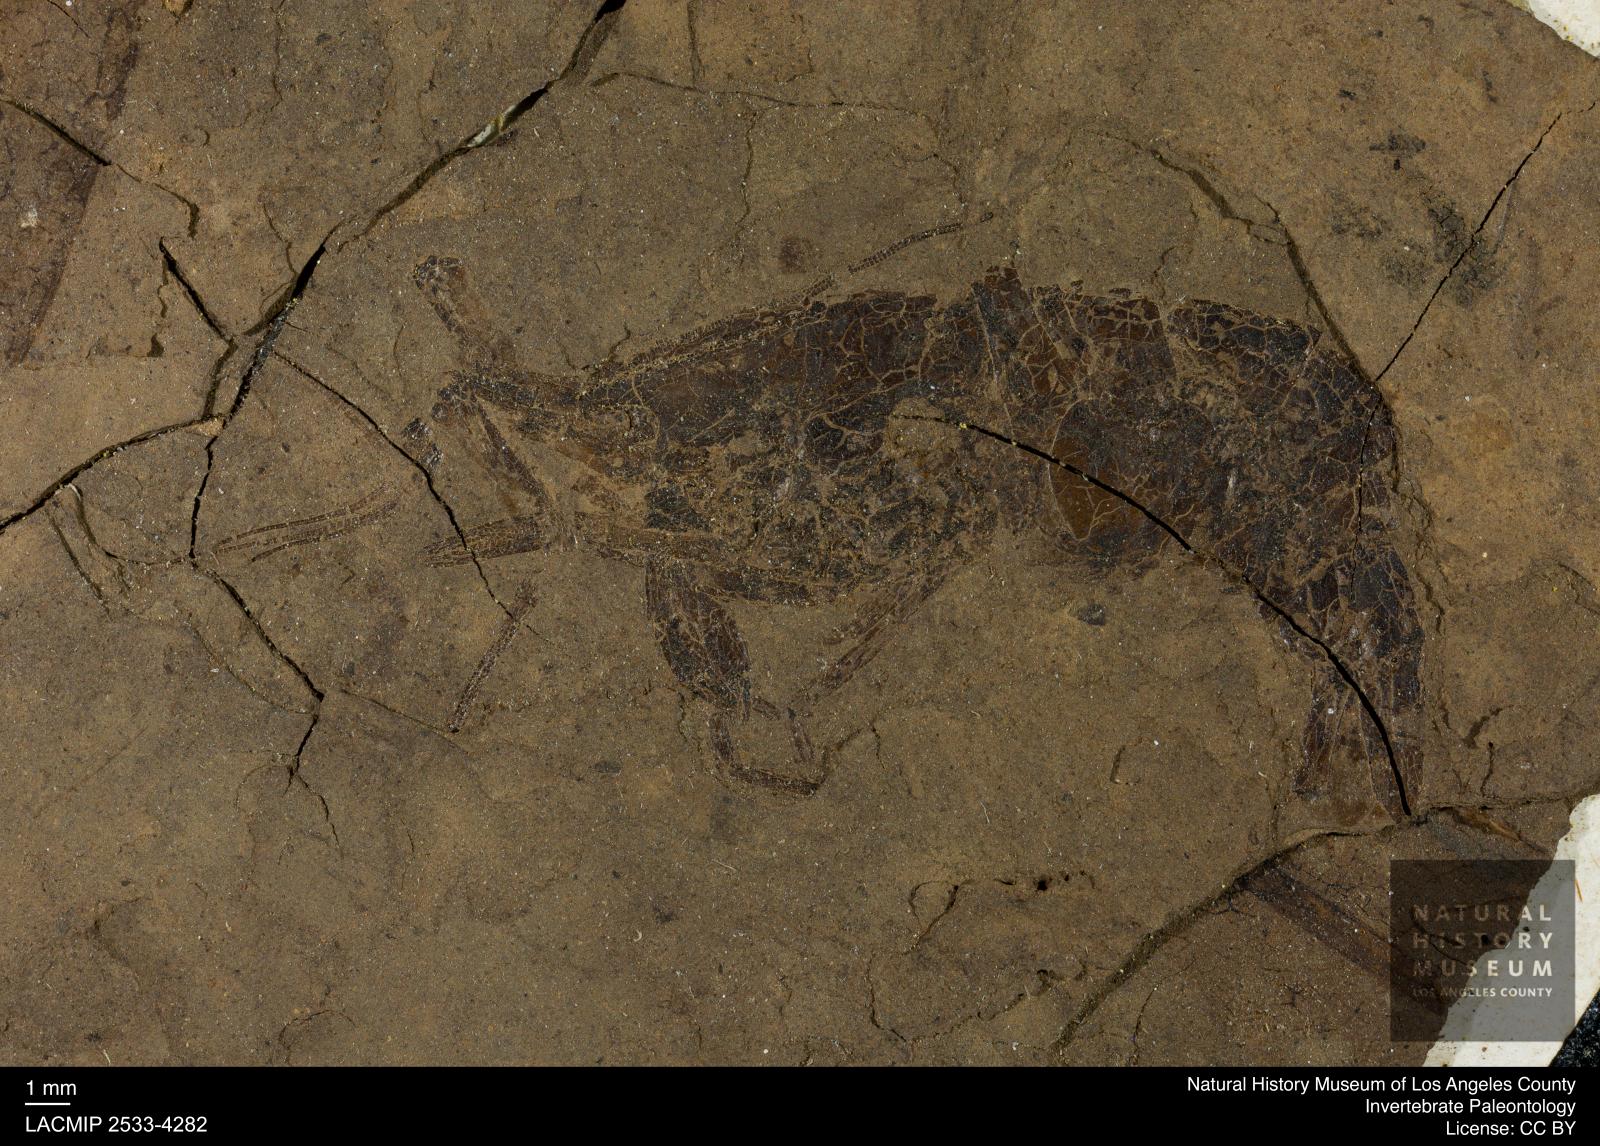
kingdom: Animalia
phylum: Arthropoda
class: Malacostraca
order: Decapoda
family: Palaemonidae
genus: Micropsalis
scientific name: Micropsalis papyracea
